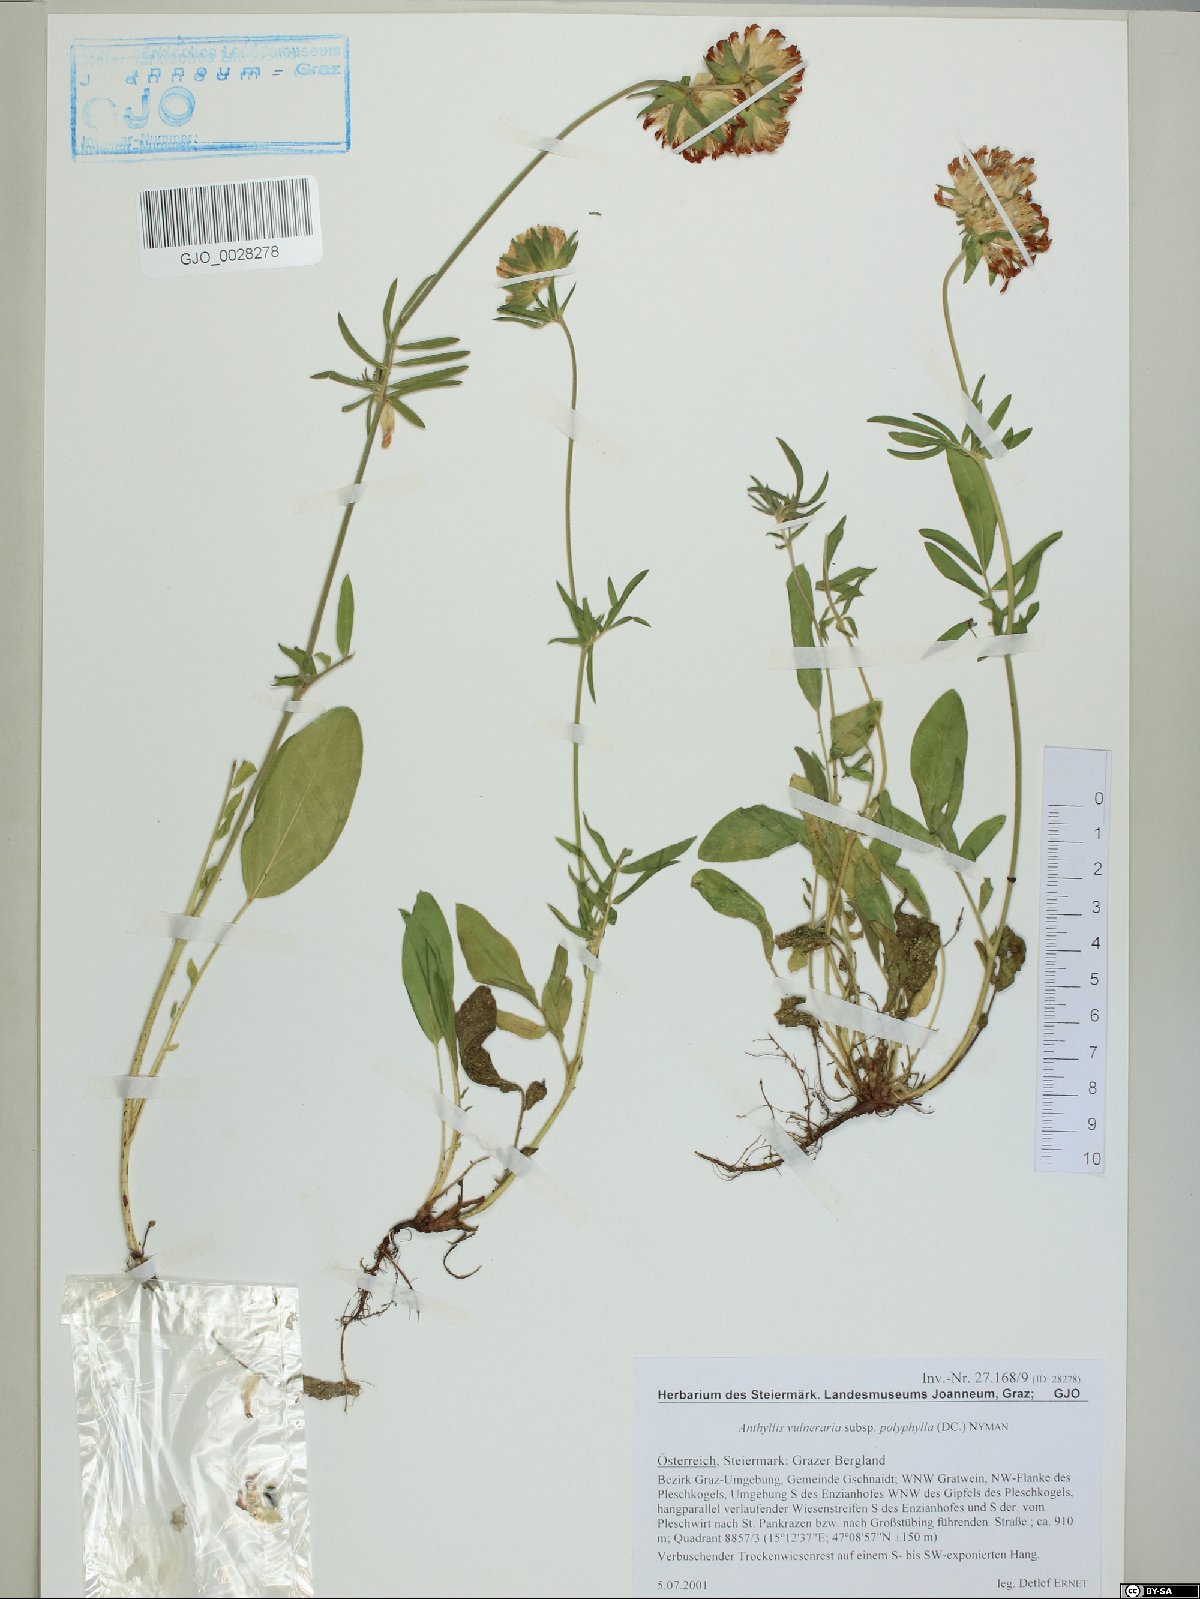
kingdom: Plantae
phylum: Tracheophyta
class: Magnoliopsida
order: Fabales
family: Fabaceae
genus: Anthyllis
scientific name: Anthyllis vulneraria
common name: Kidney vetch
